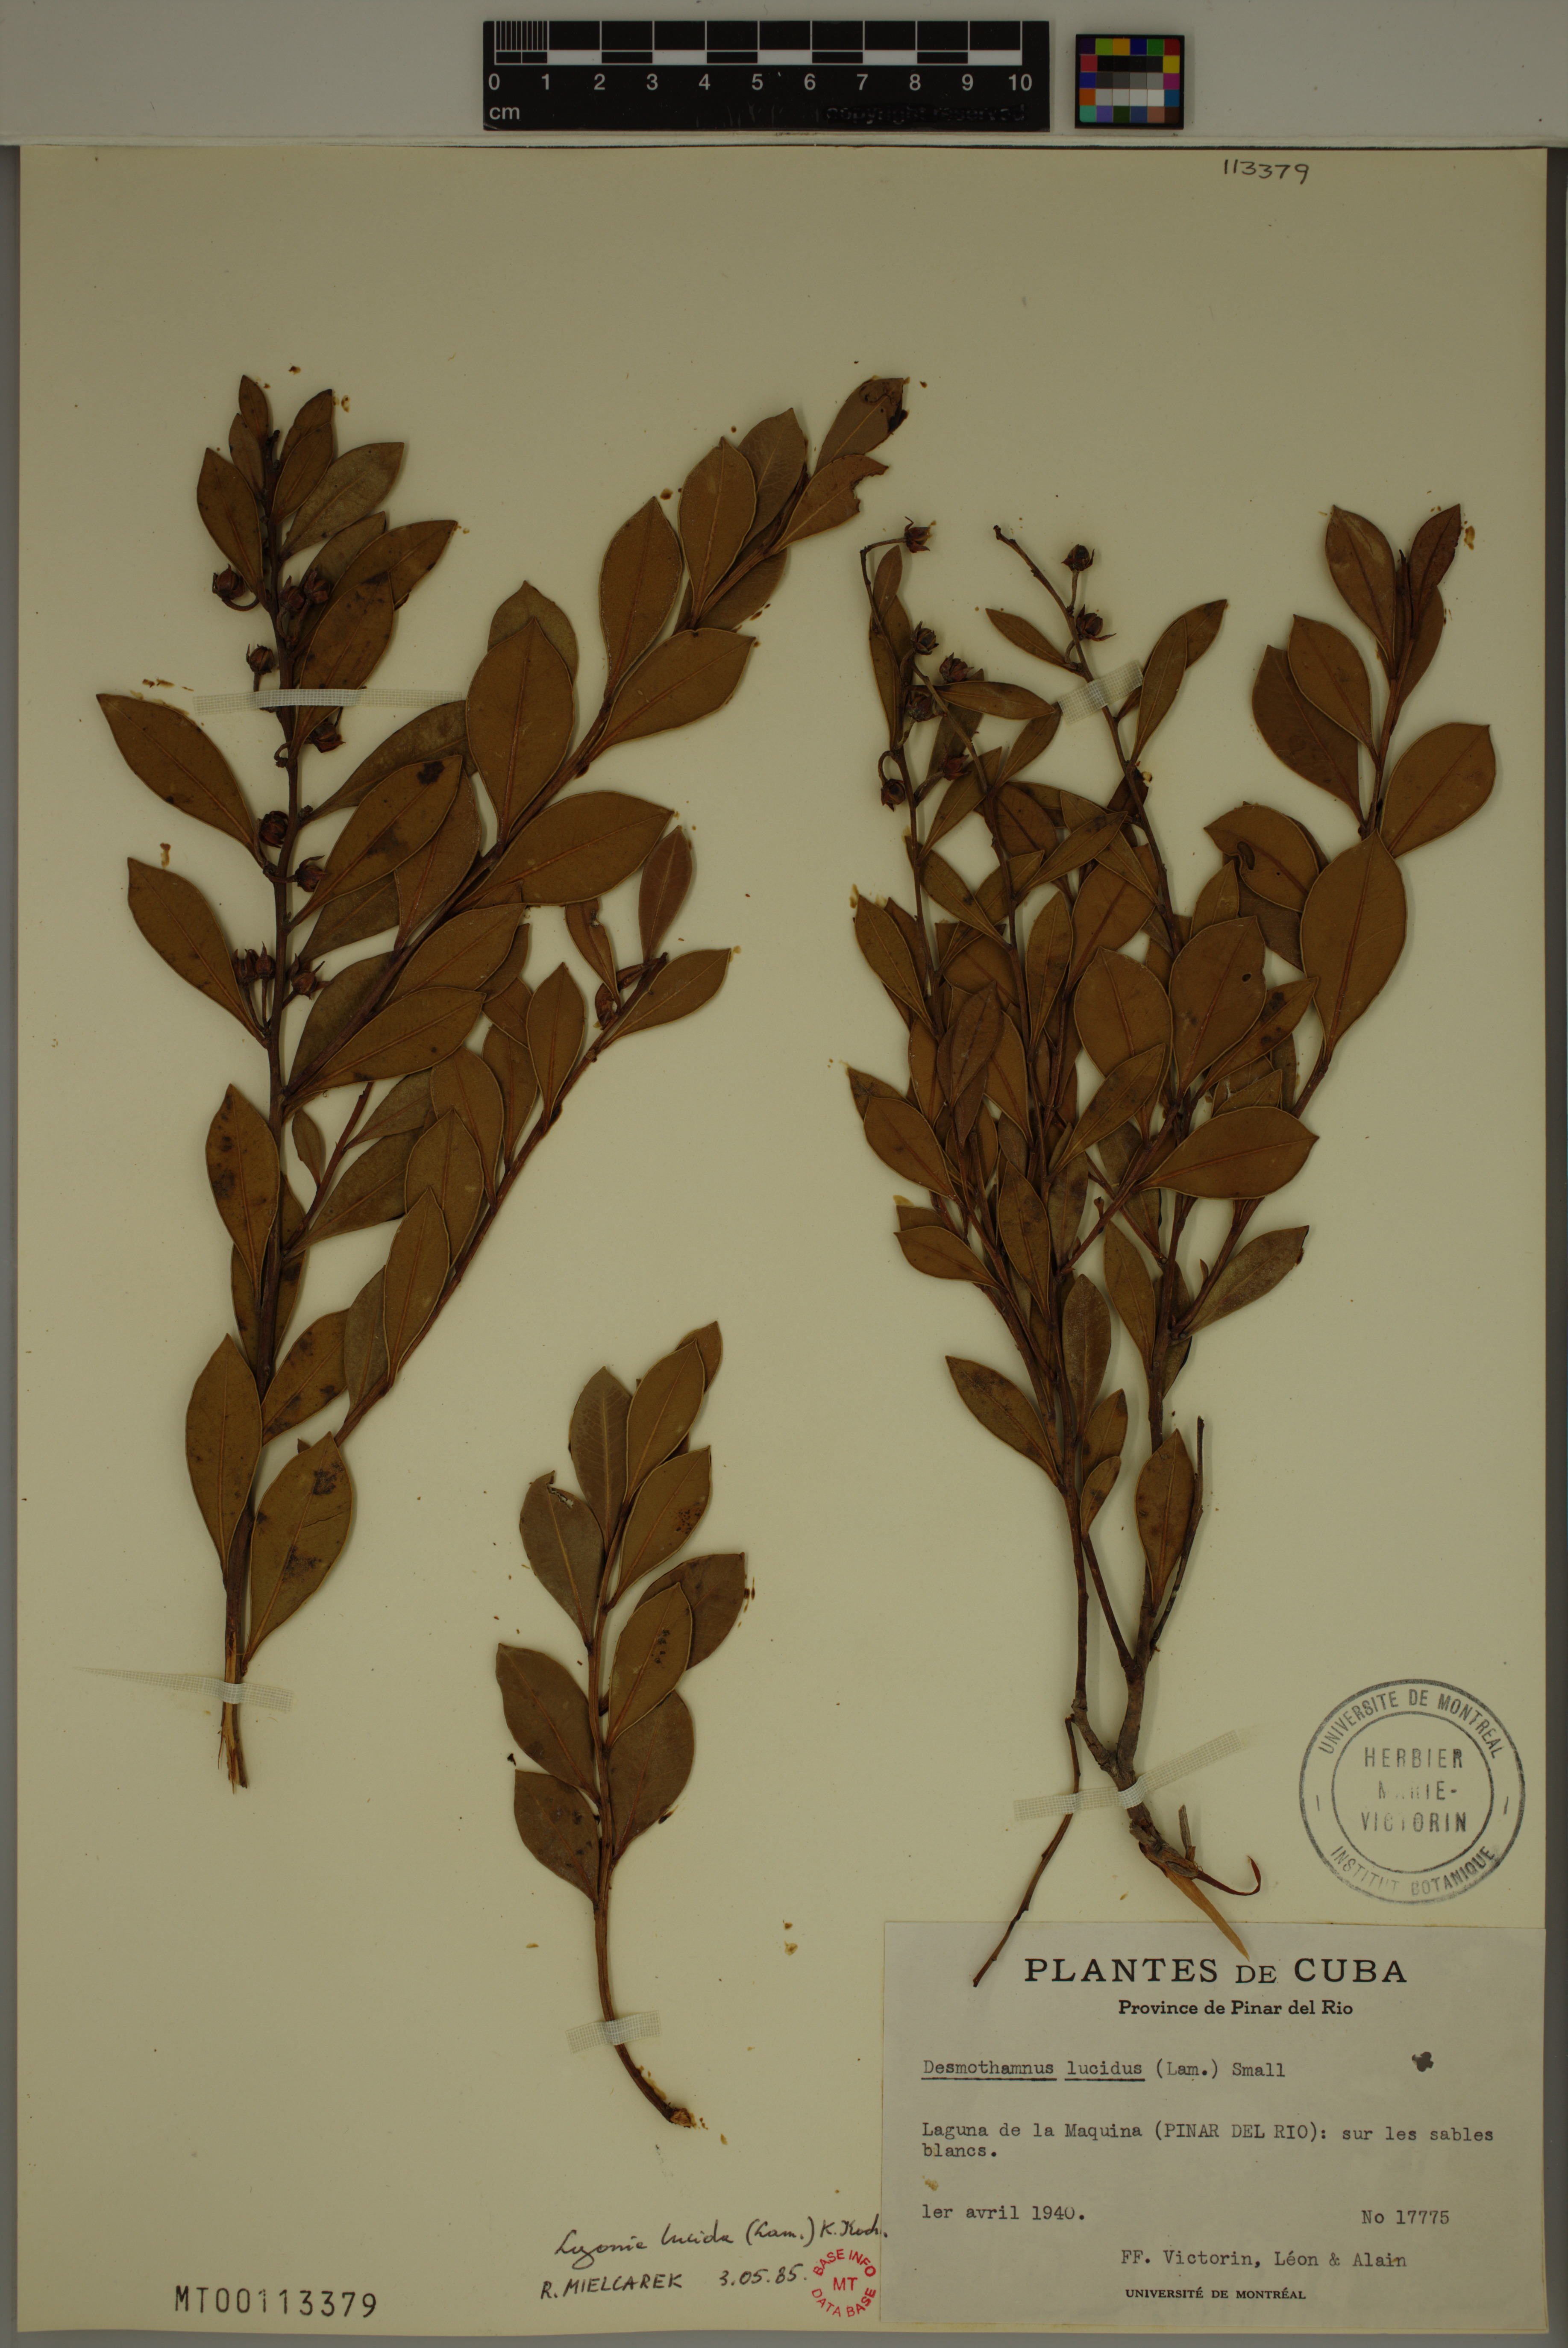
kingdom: Plantae
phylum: Tracheophyta
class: Magnoliopsida
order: Ericales
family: Ericaceae
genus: Lyonia
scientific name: Lyonia lucida
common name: Fetterbush
